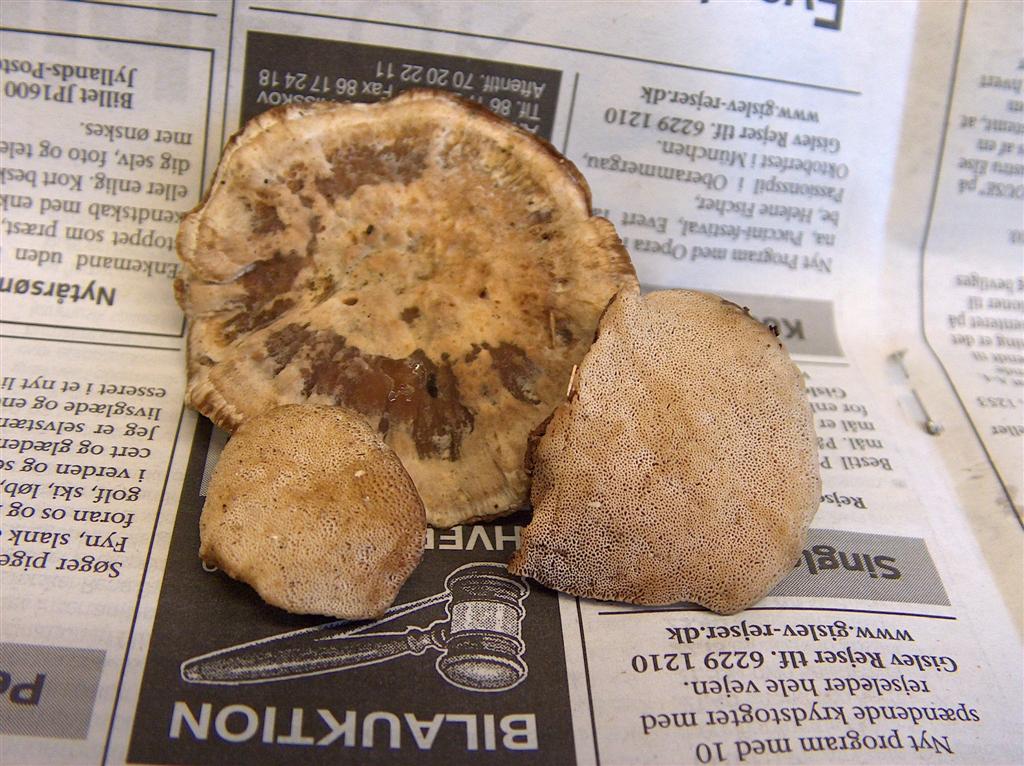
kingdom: Fungi
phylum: Basidiomycota
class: Agaricomycetes
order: Polyporales
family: Polyporaceae
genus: Trametes
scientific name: Trametes versicolor
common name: broget læderporesvamp
